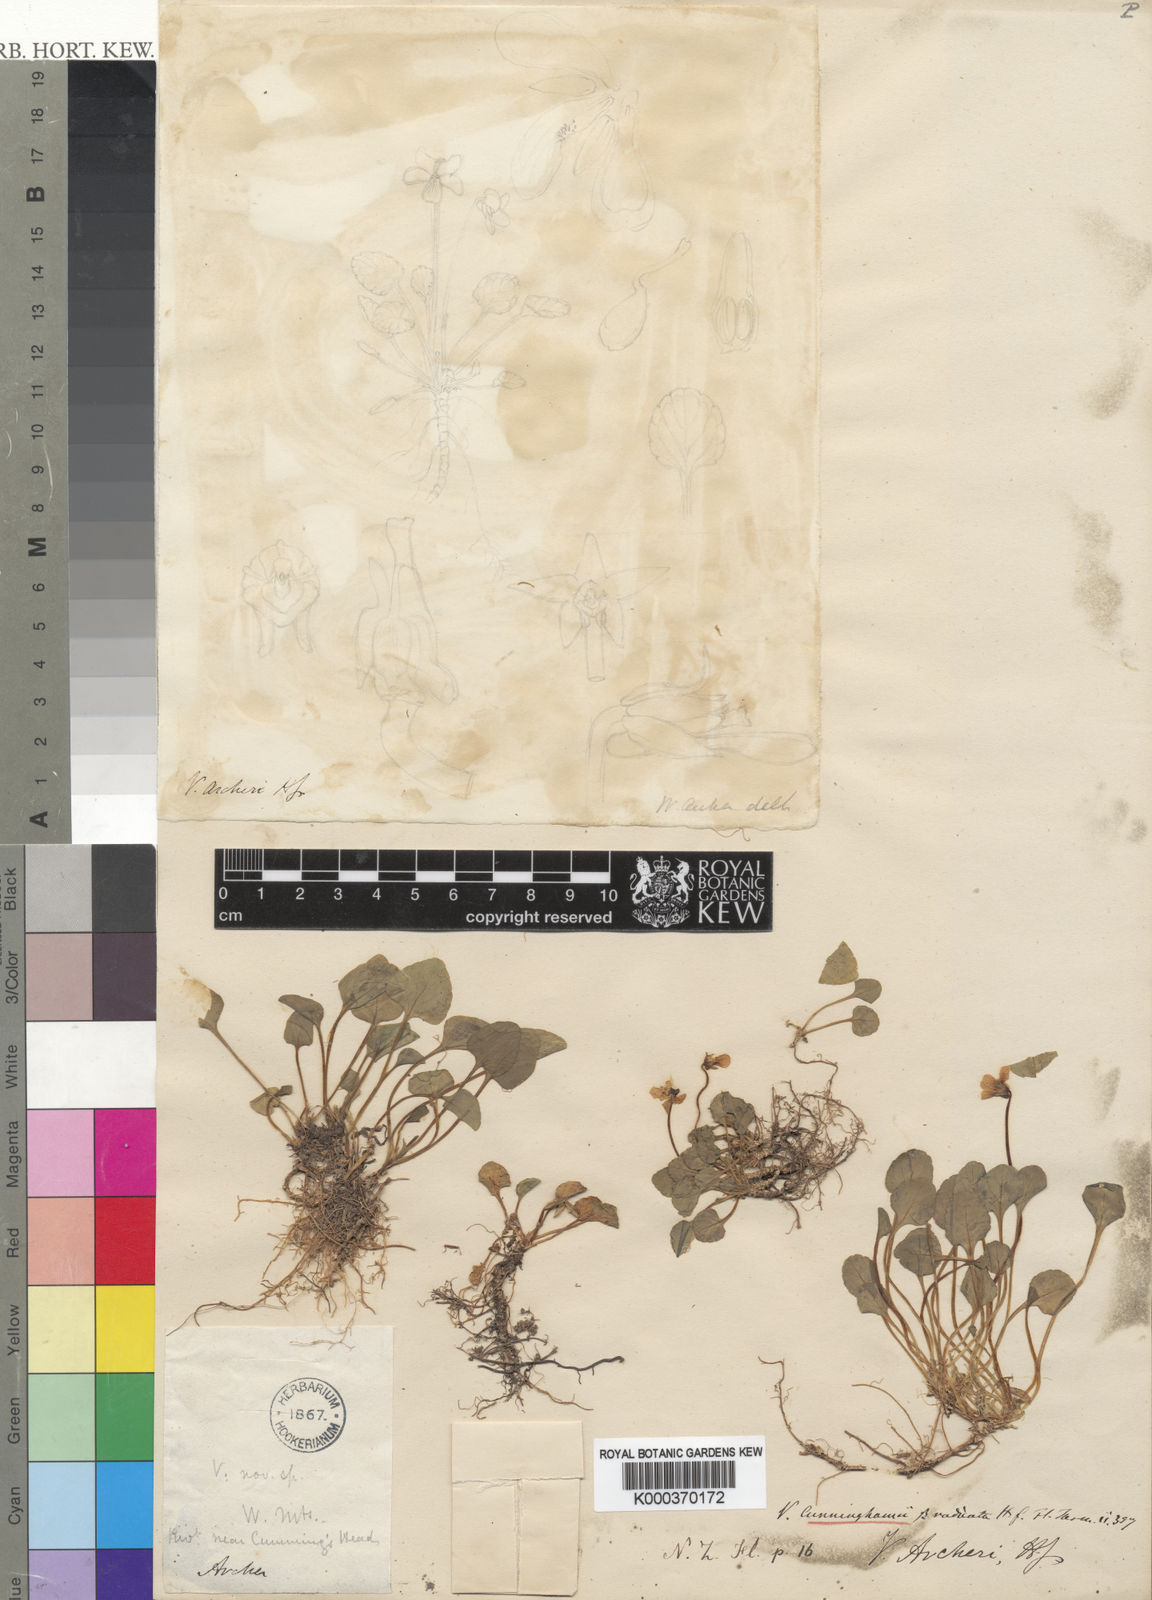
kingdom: Plantae
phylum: Tracheophyta
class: Magnoliopsida
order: Malpighiales
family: Violaceae
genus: Viola
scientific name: Viola cunninghamii
